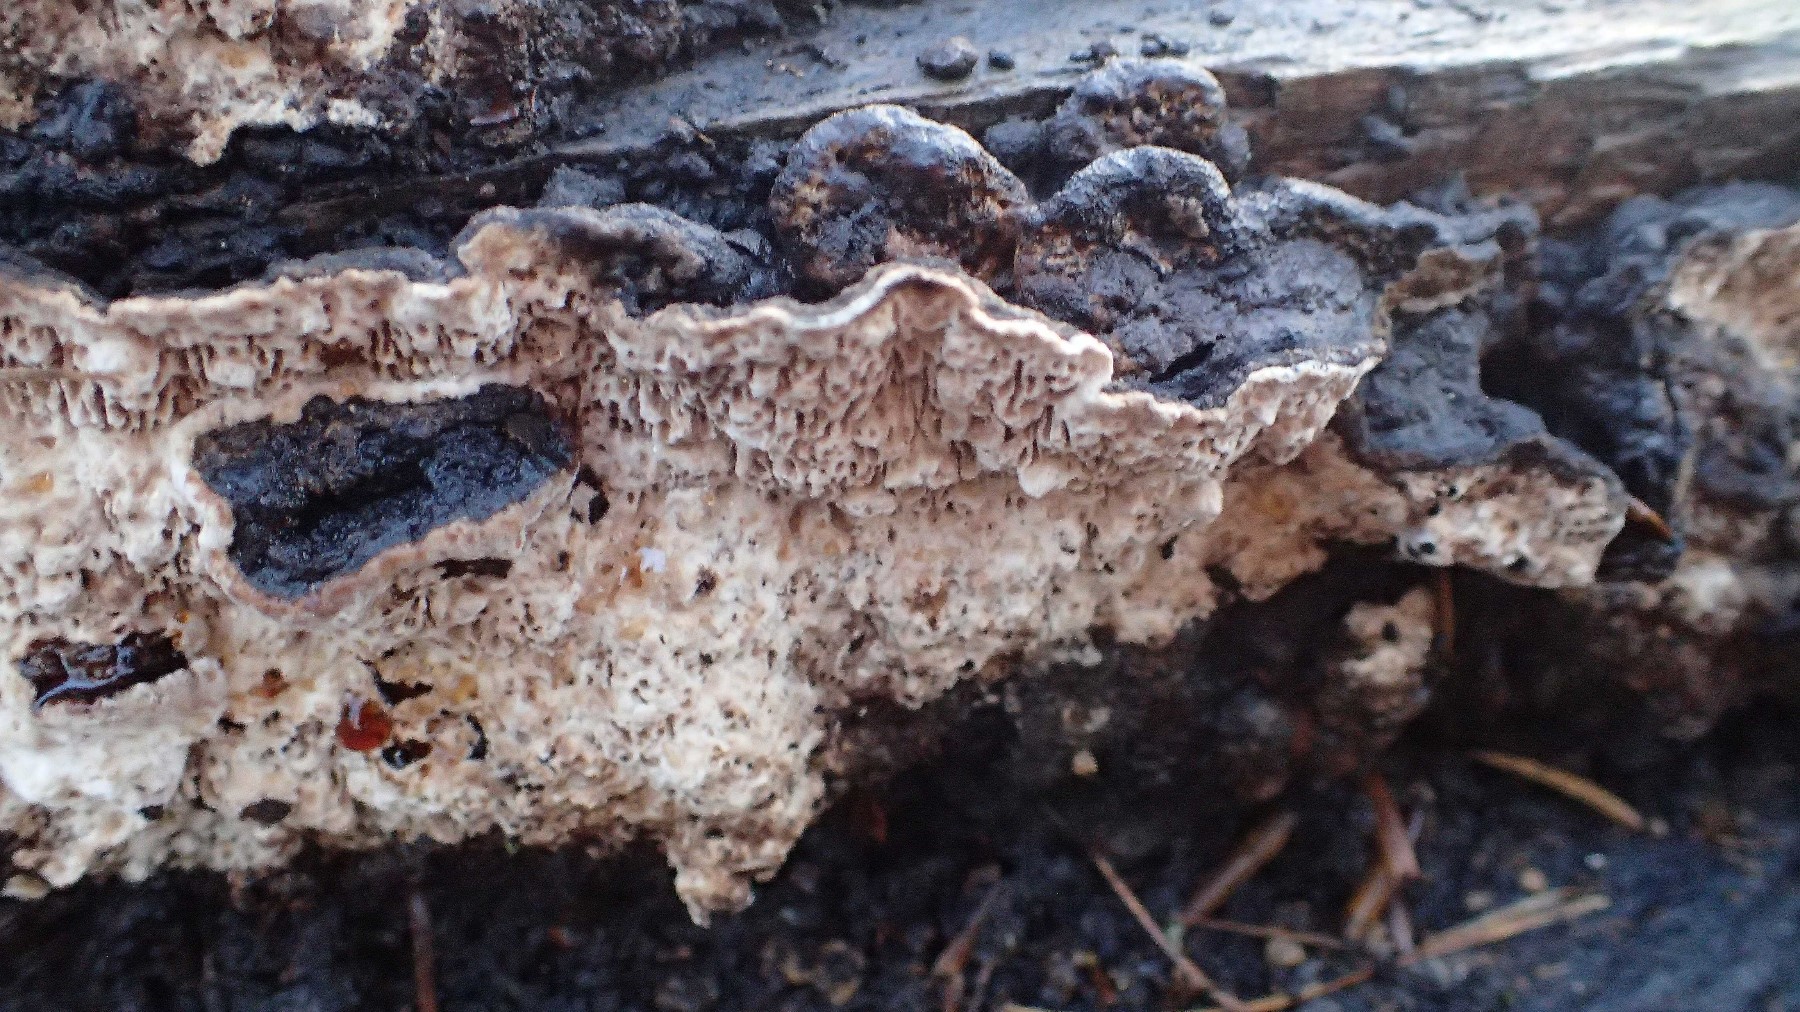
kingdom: Fungi
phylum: Basidiomycota
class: Agaricomycetes
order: Polyporales
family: Polyporaceae
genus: Podofomes
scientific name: Podofomes mollis
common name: blød begporesvamp
